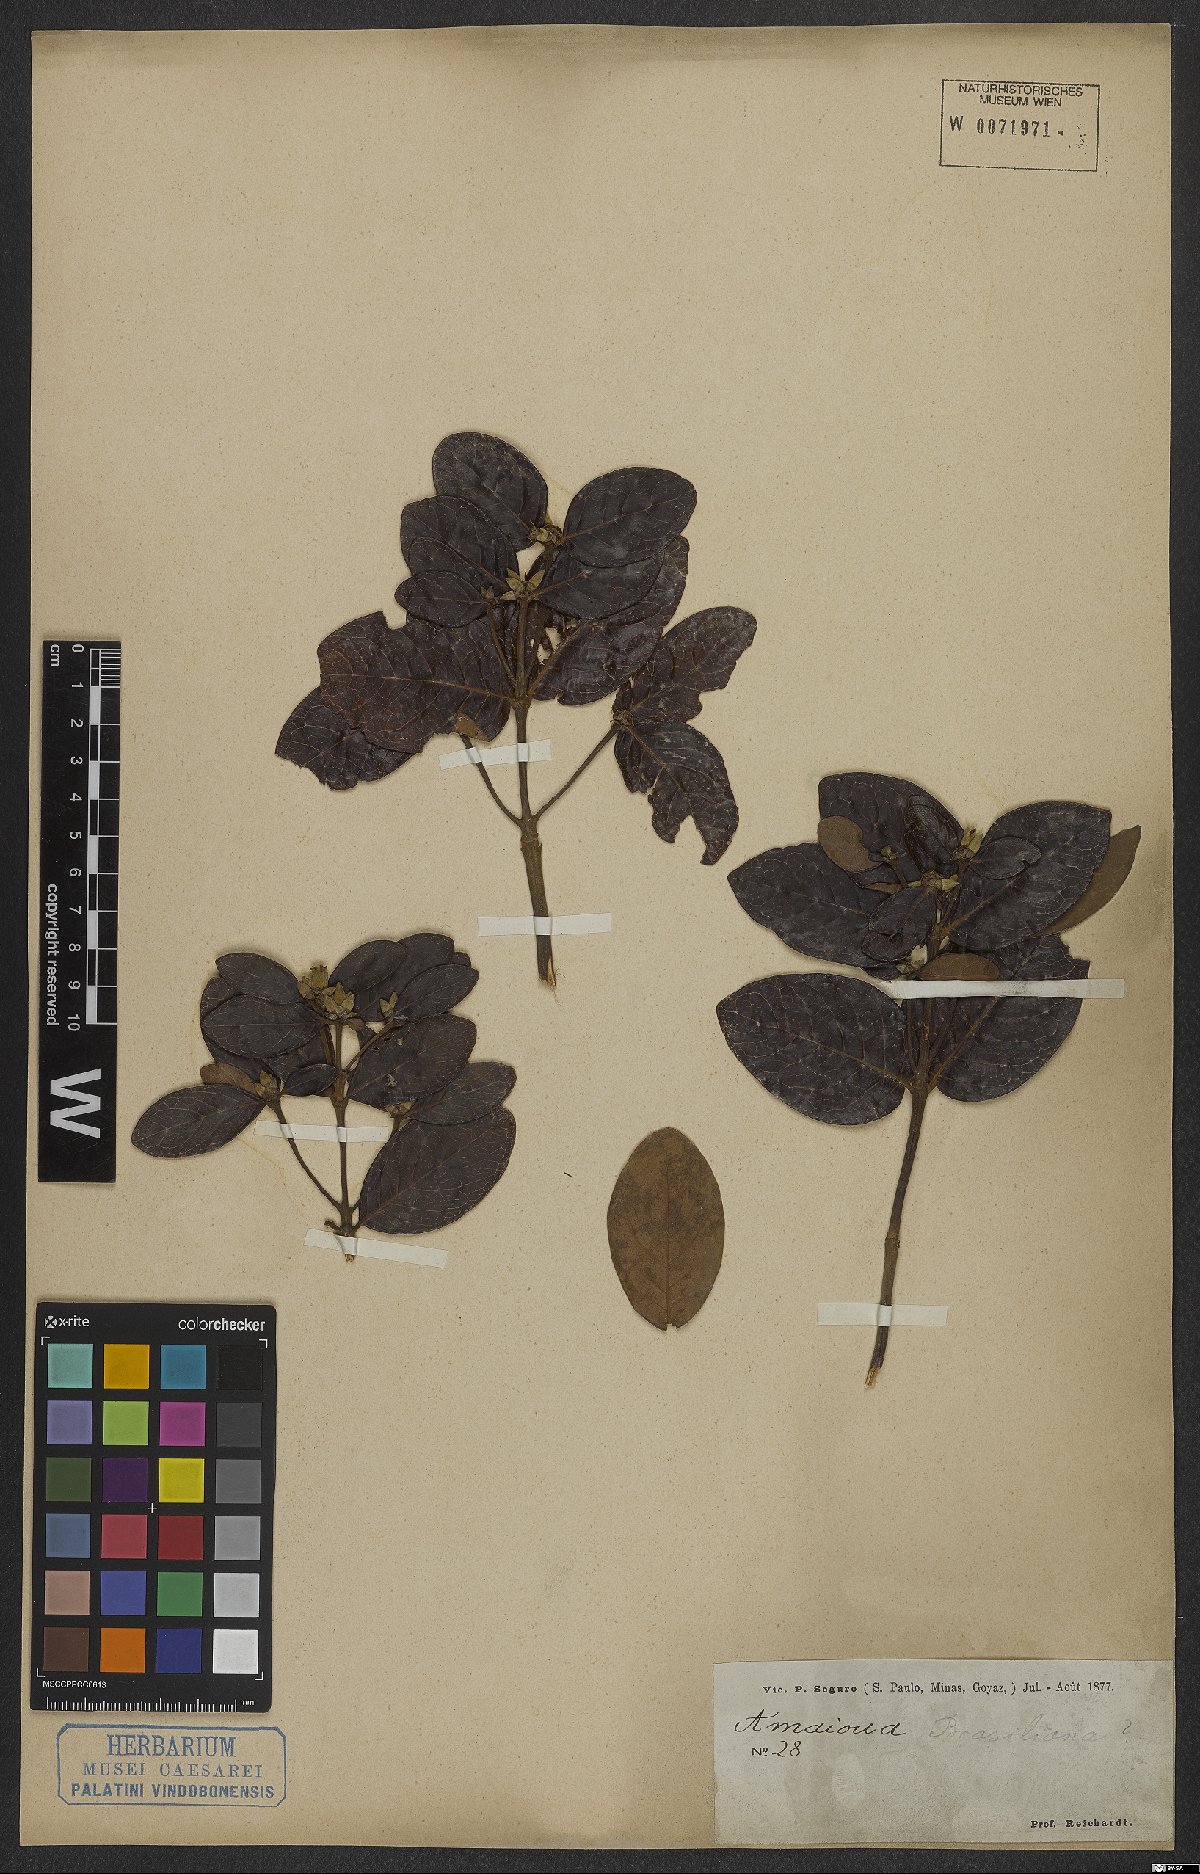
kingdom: Plantae
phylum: Tracheophyta
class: Magnoliopsida
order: Gentianales
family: Rubiaceae
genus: Amaioua
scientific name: Amaioua intermedia
